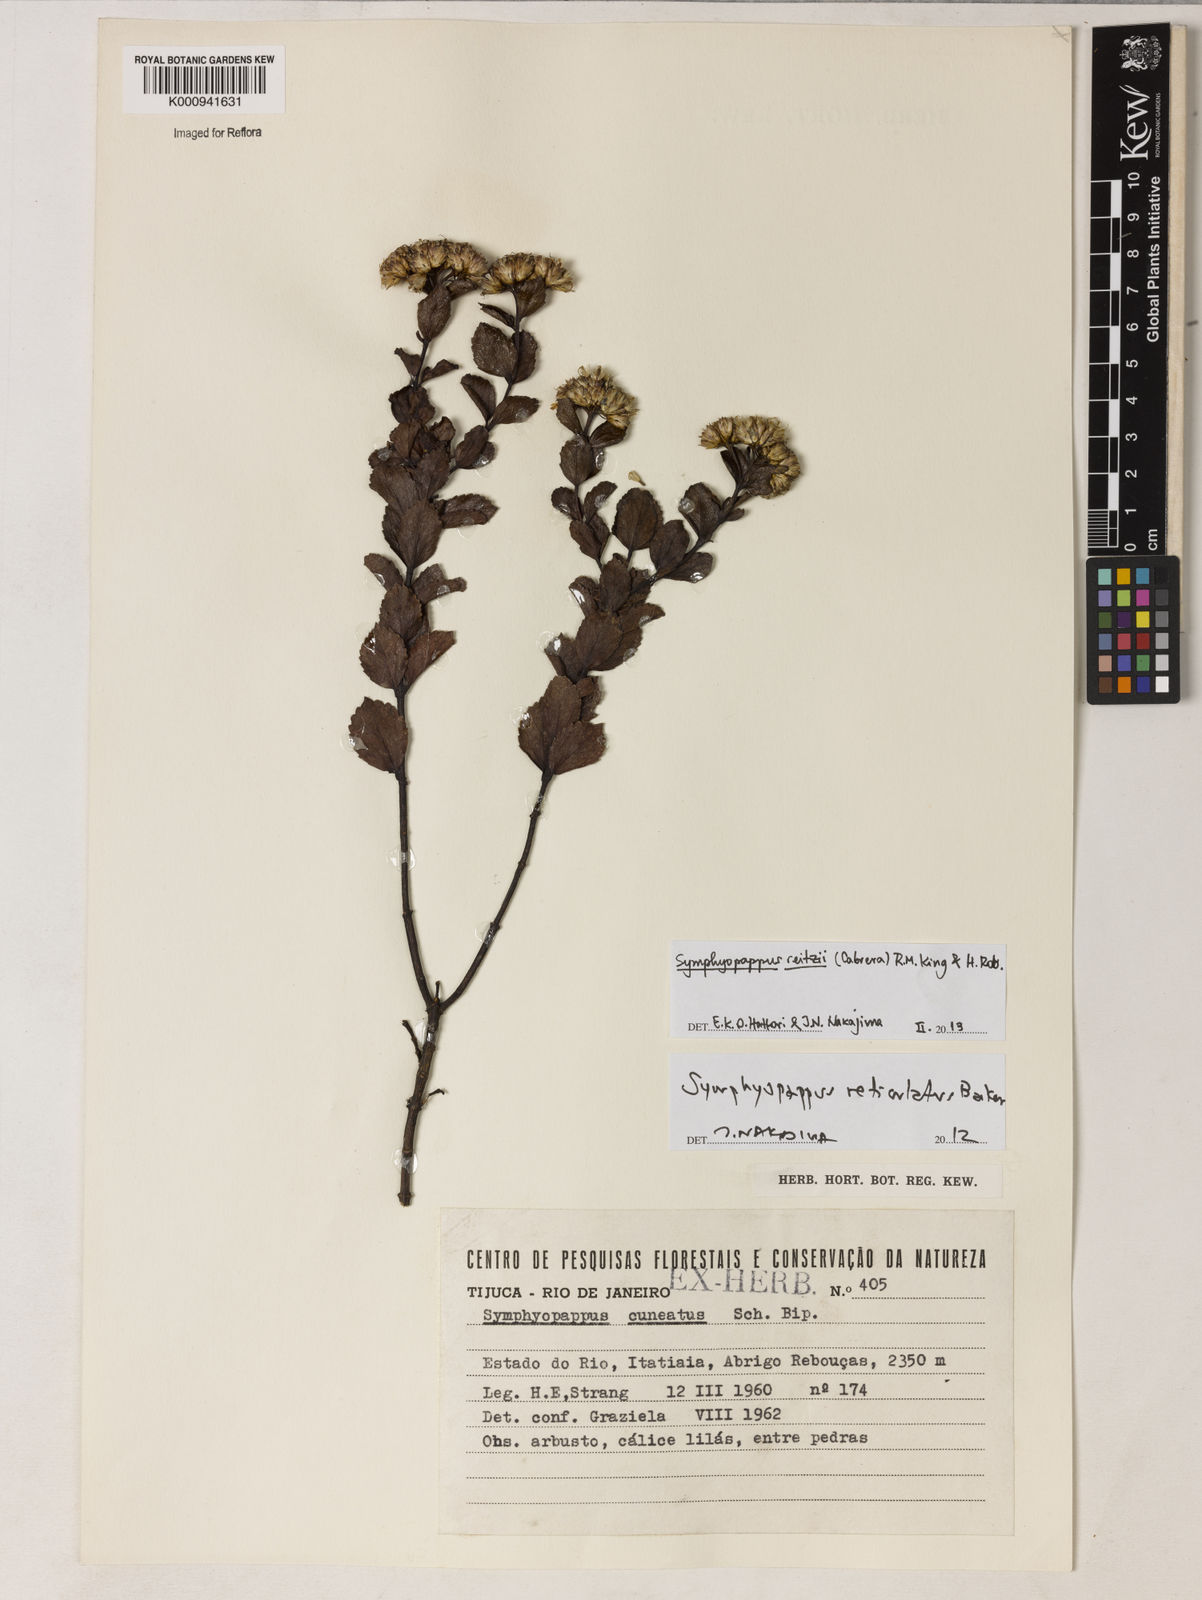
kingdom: Plantae
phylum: Tracheophyta
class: Magnoliopsida
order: Asterales
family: Asteraceae
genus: Symphyopappus
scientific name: Symphyopappus reitzii
